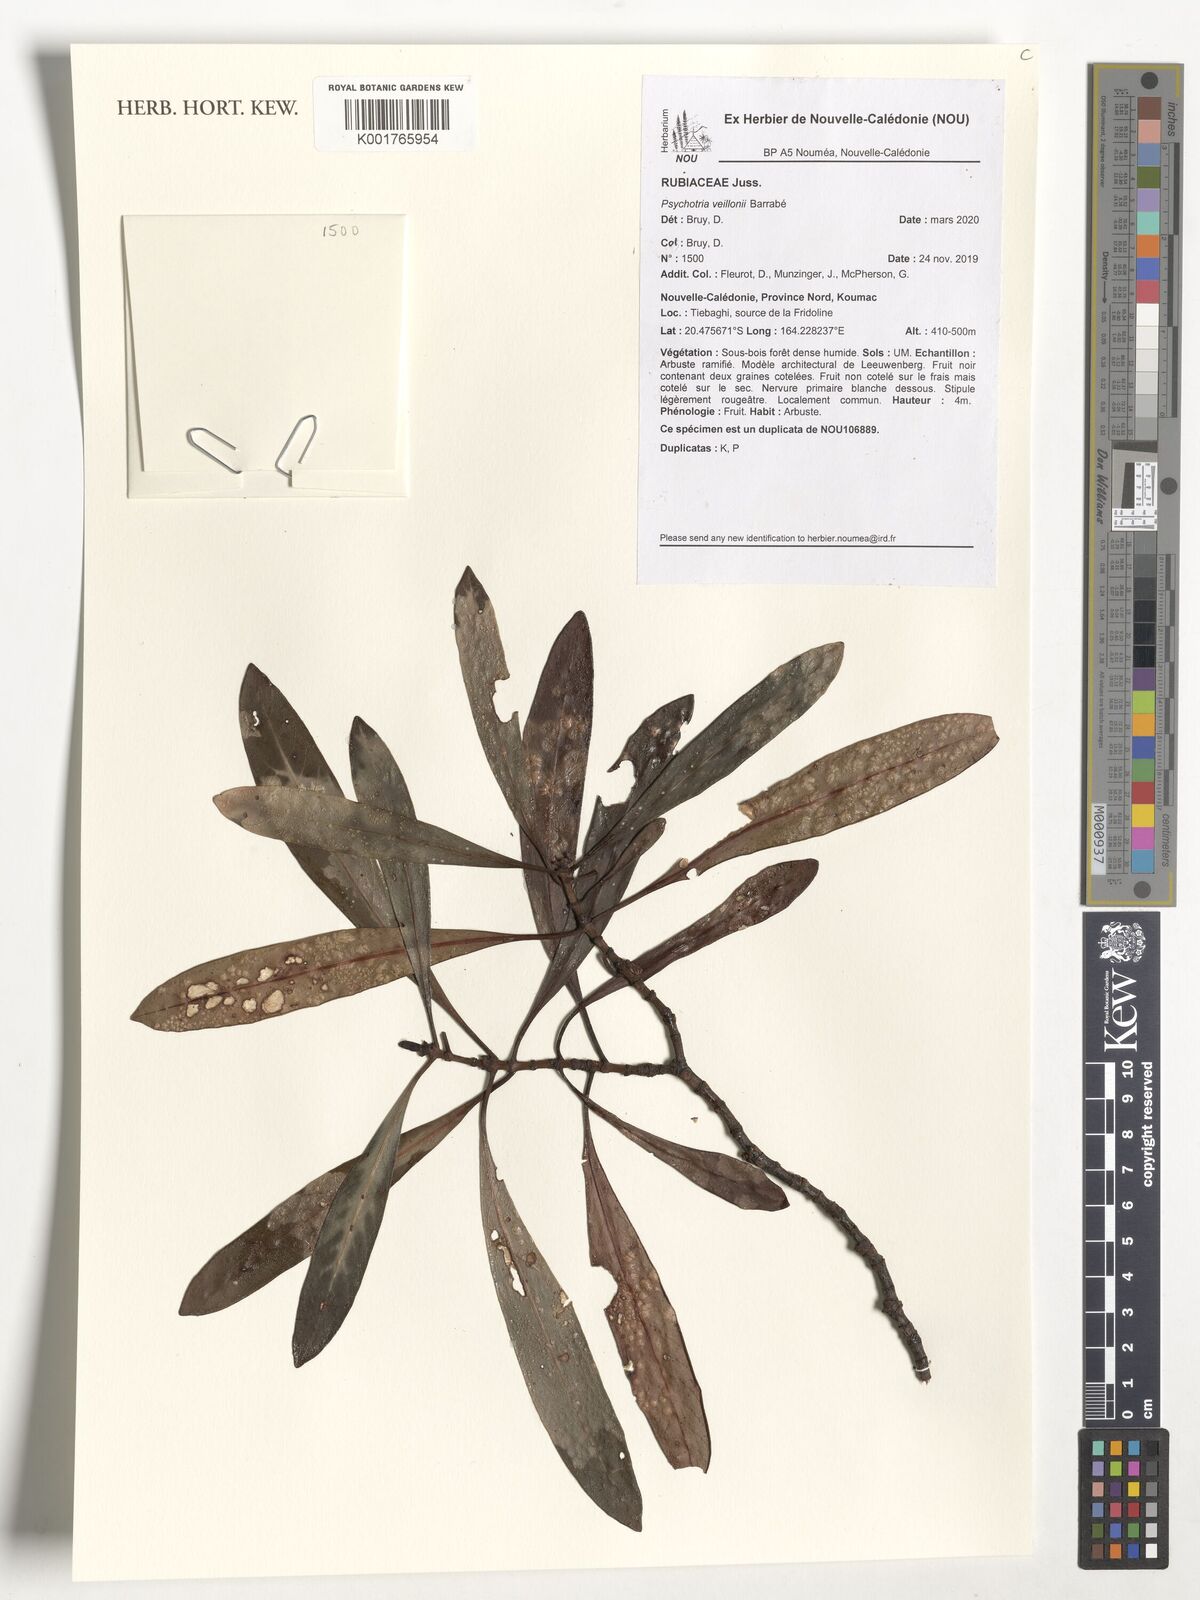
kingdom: Plantae
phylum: Tracheophyta
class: Magnoliopsida
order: Gentianales
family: Rubiaceae
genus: Psychotria
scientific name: Psychotria veillonii
